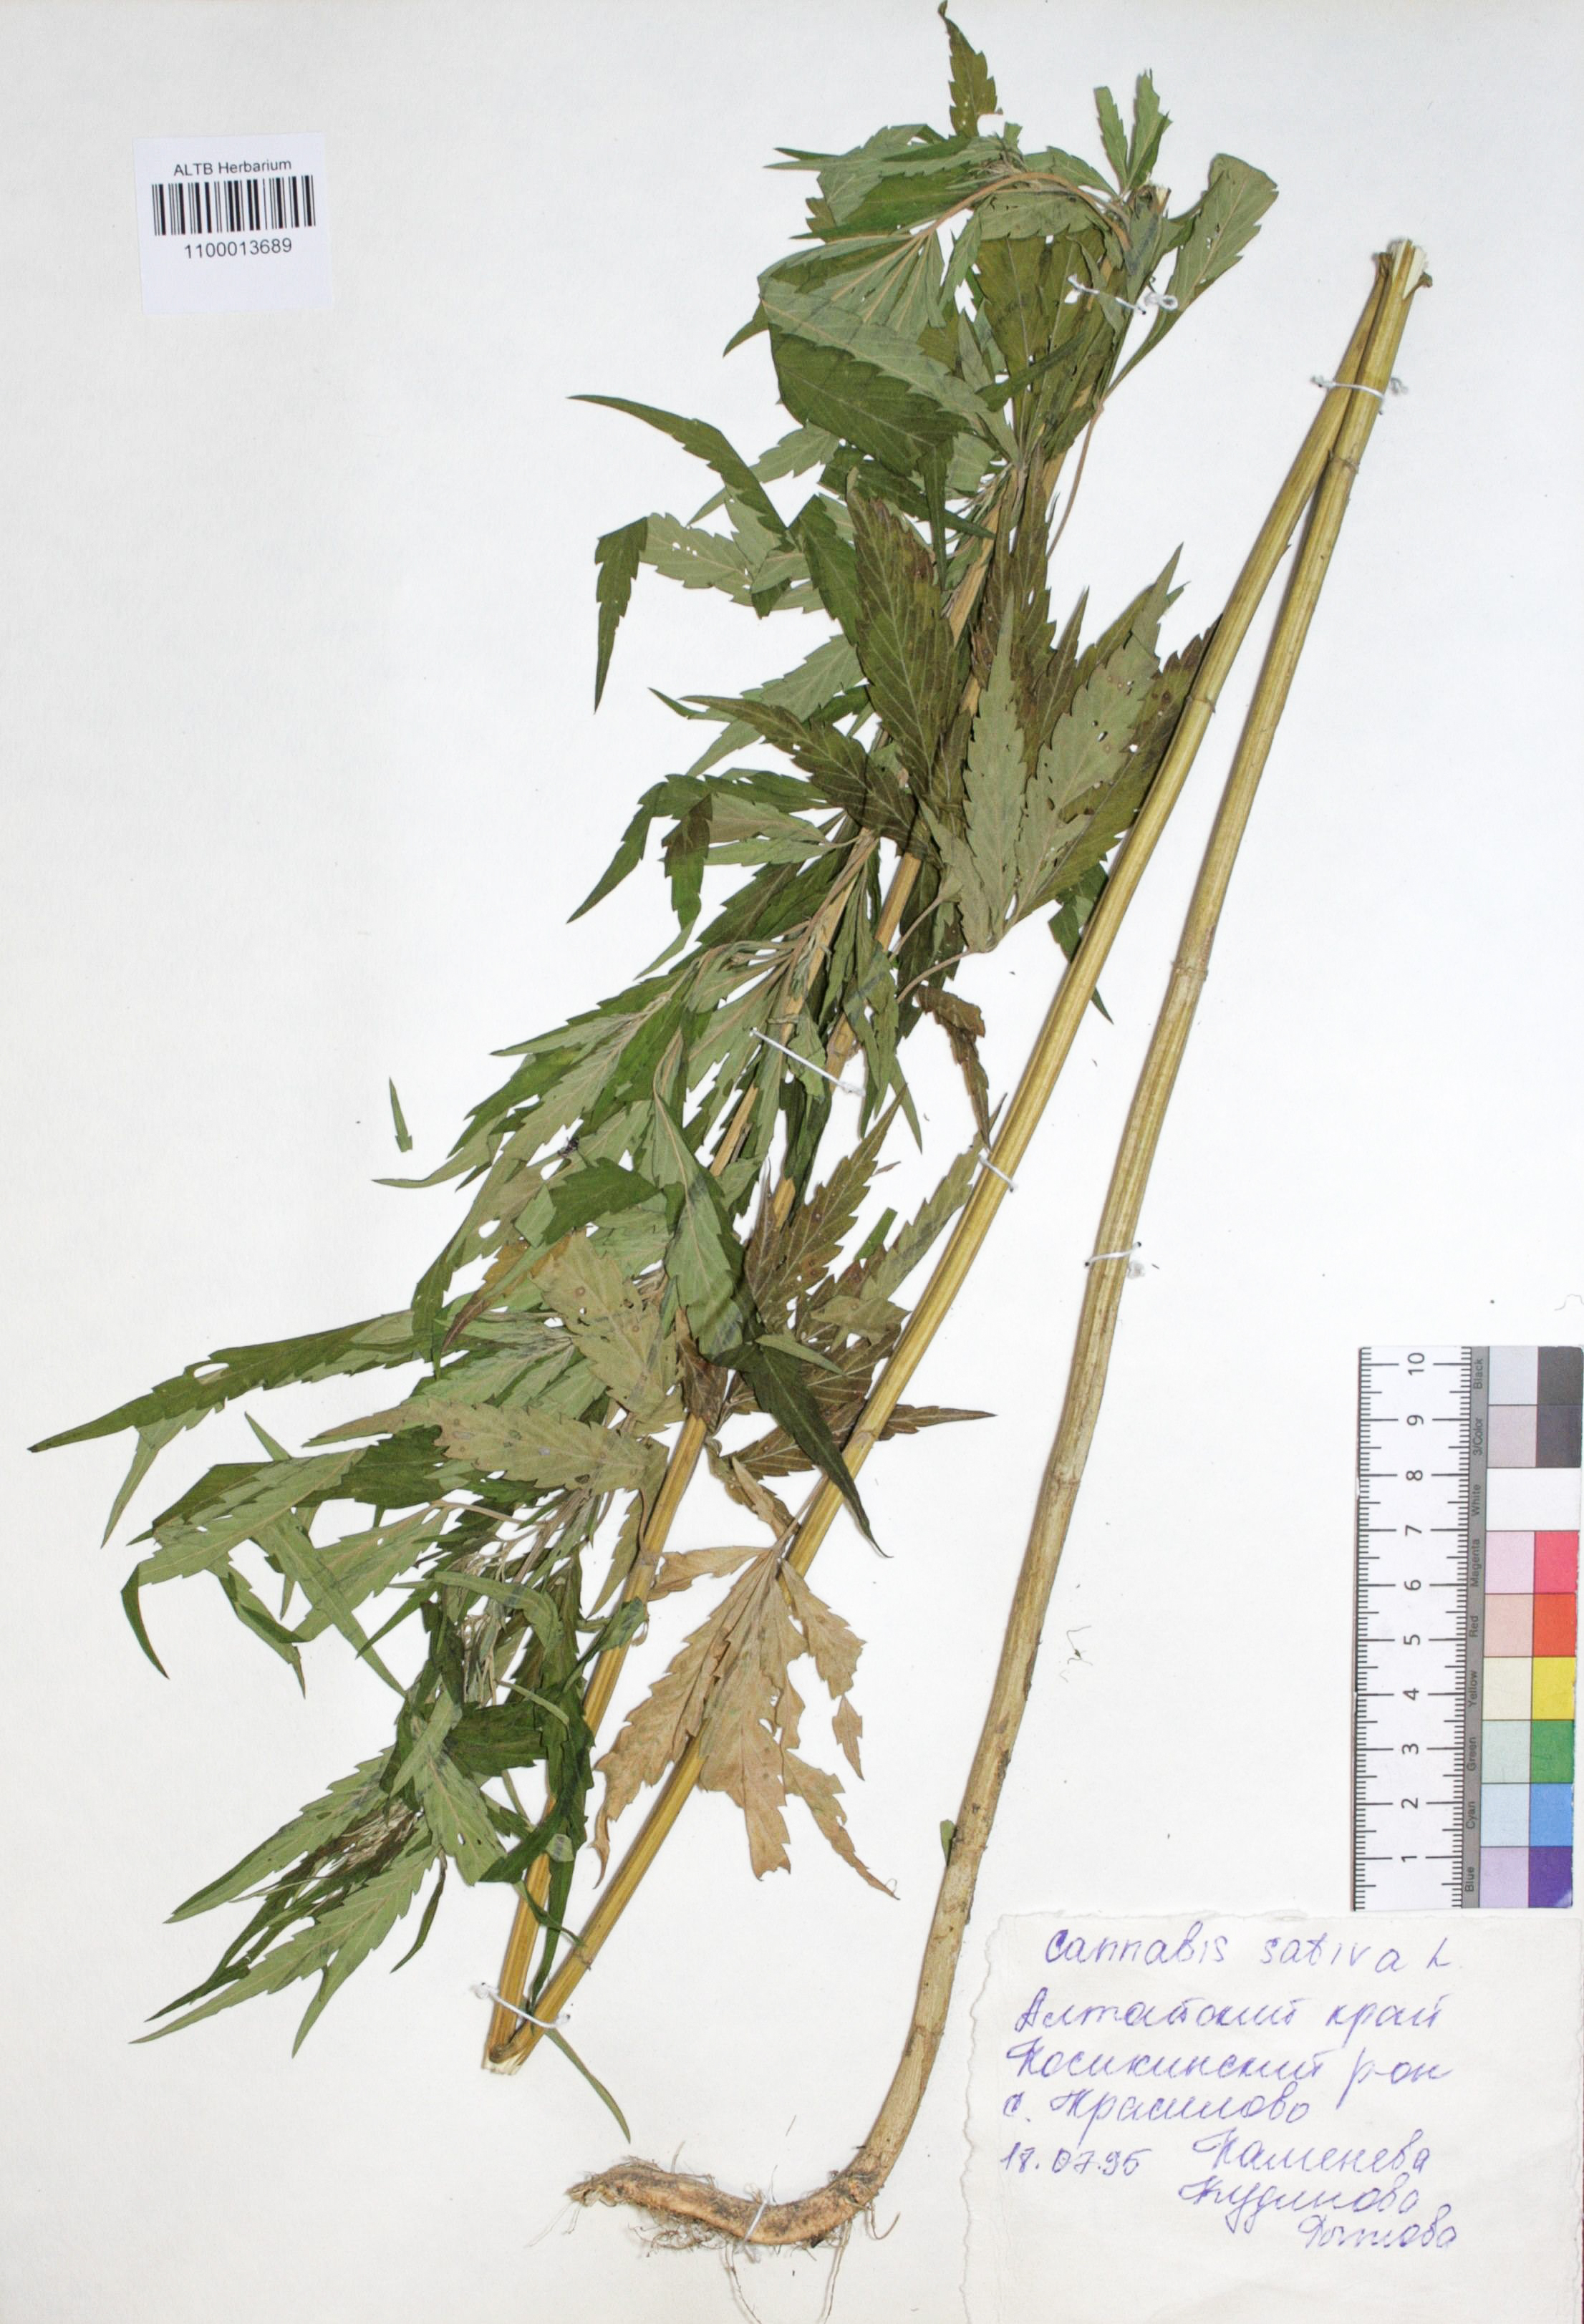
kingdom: Plantae
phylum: Tracheophyta
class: Magnoliopsida
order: Rosales
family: Cannabaceae
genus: Cannabis
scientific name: Cannabis sativa
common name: Hemp
